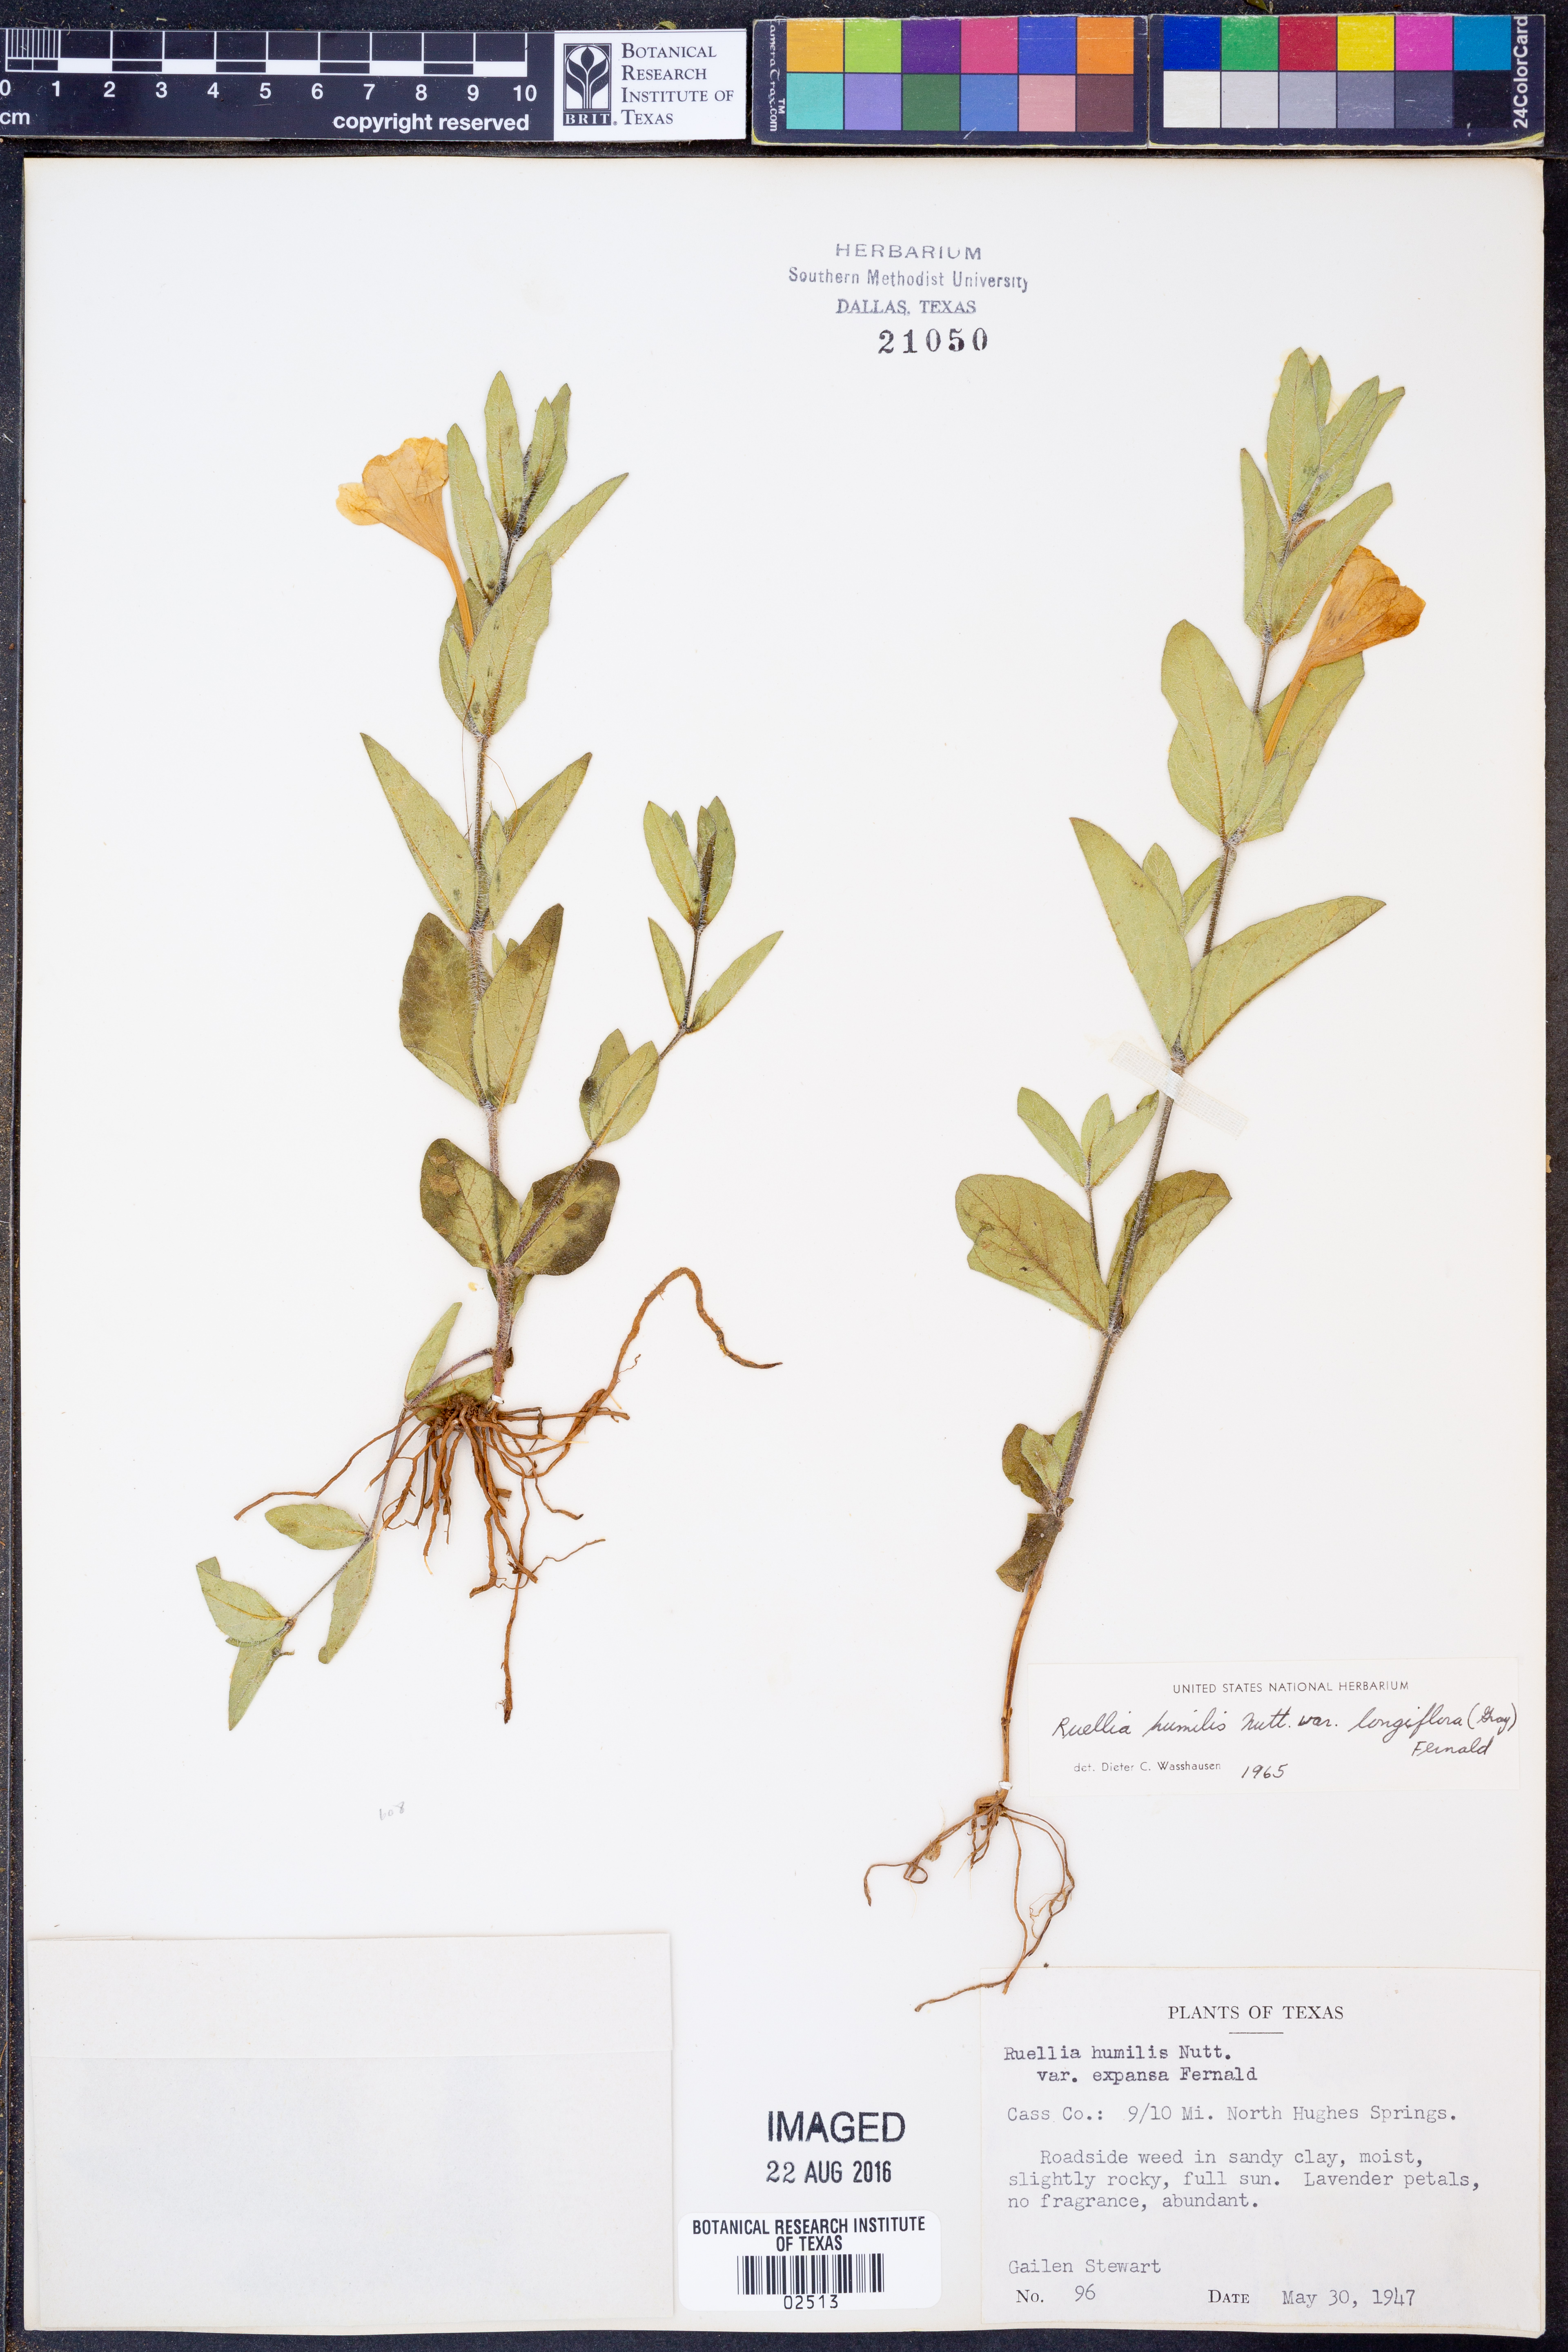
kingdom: Plantae
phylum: Tracheophyta
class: Magnoliopsida
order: Lamiales
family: Acanthaceae
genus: Ruellia
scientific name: Ruellia humilis
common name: Fringe-leaf ruellia
